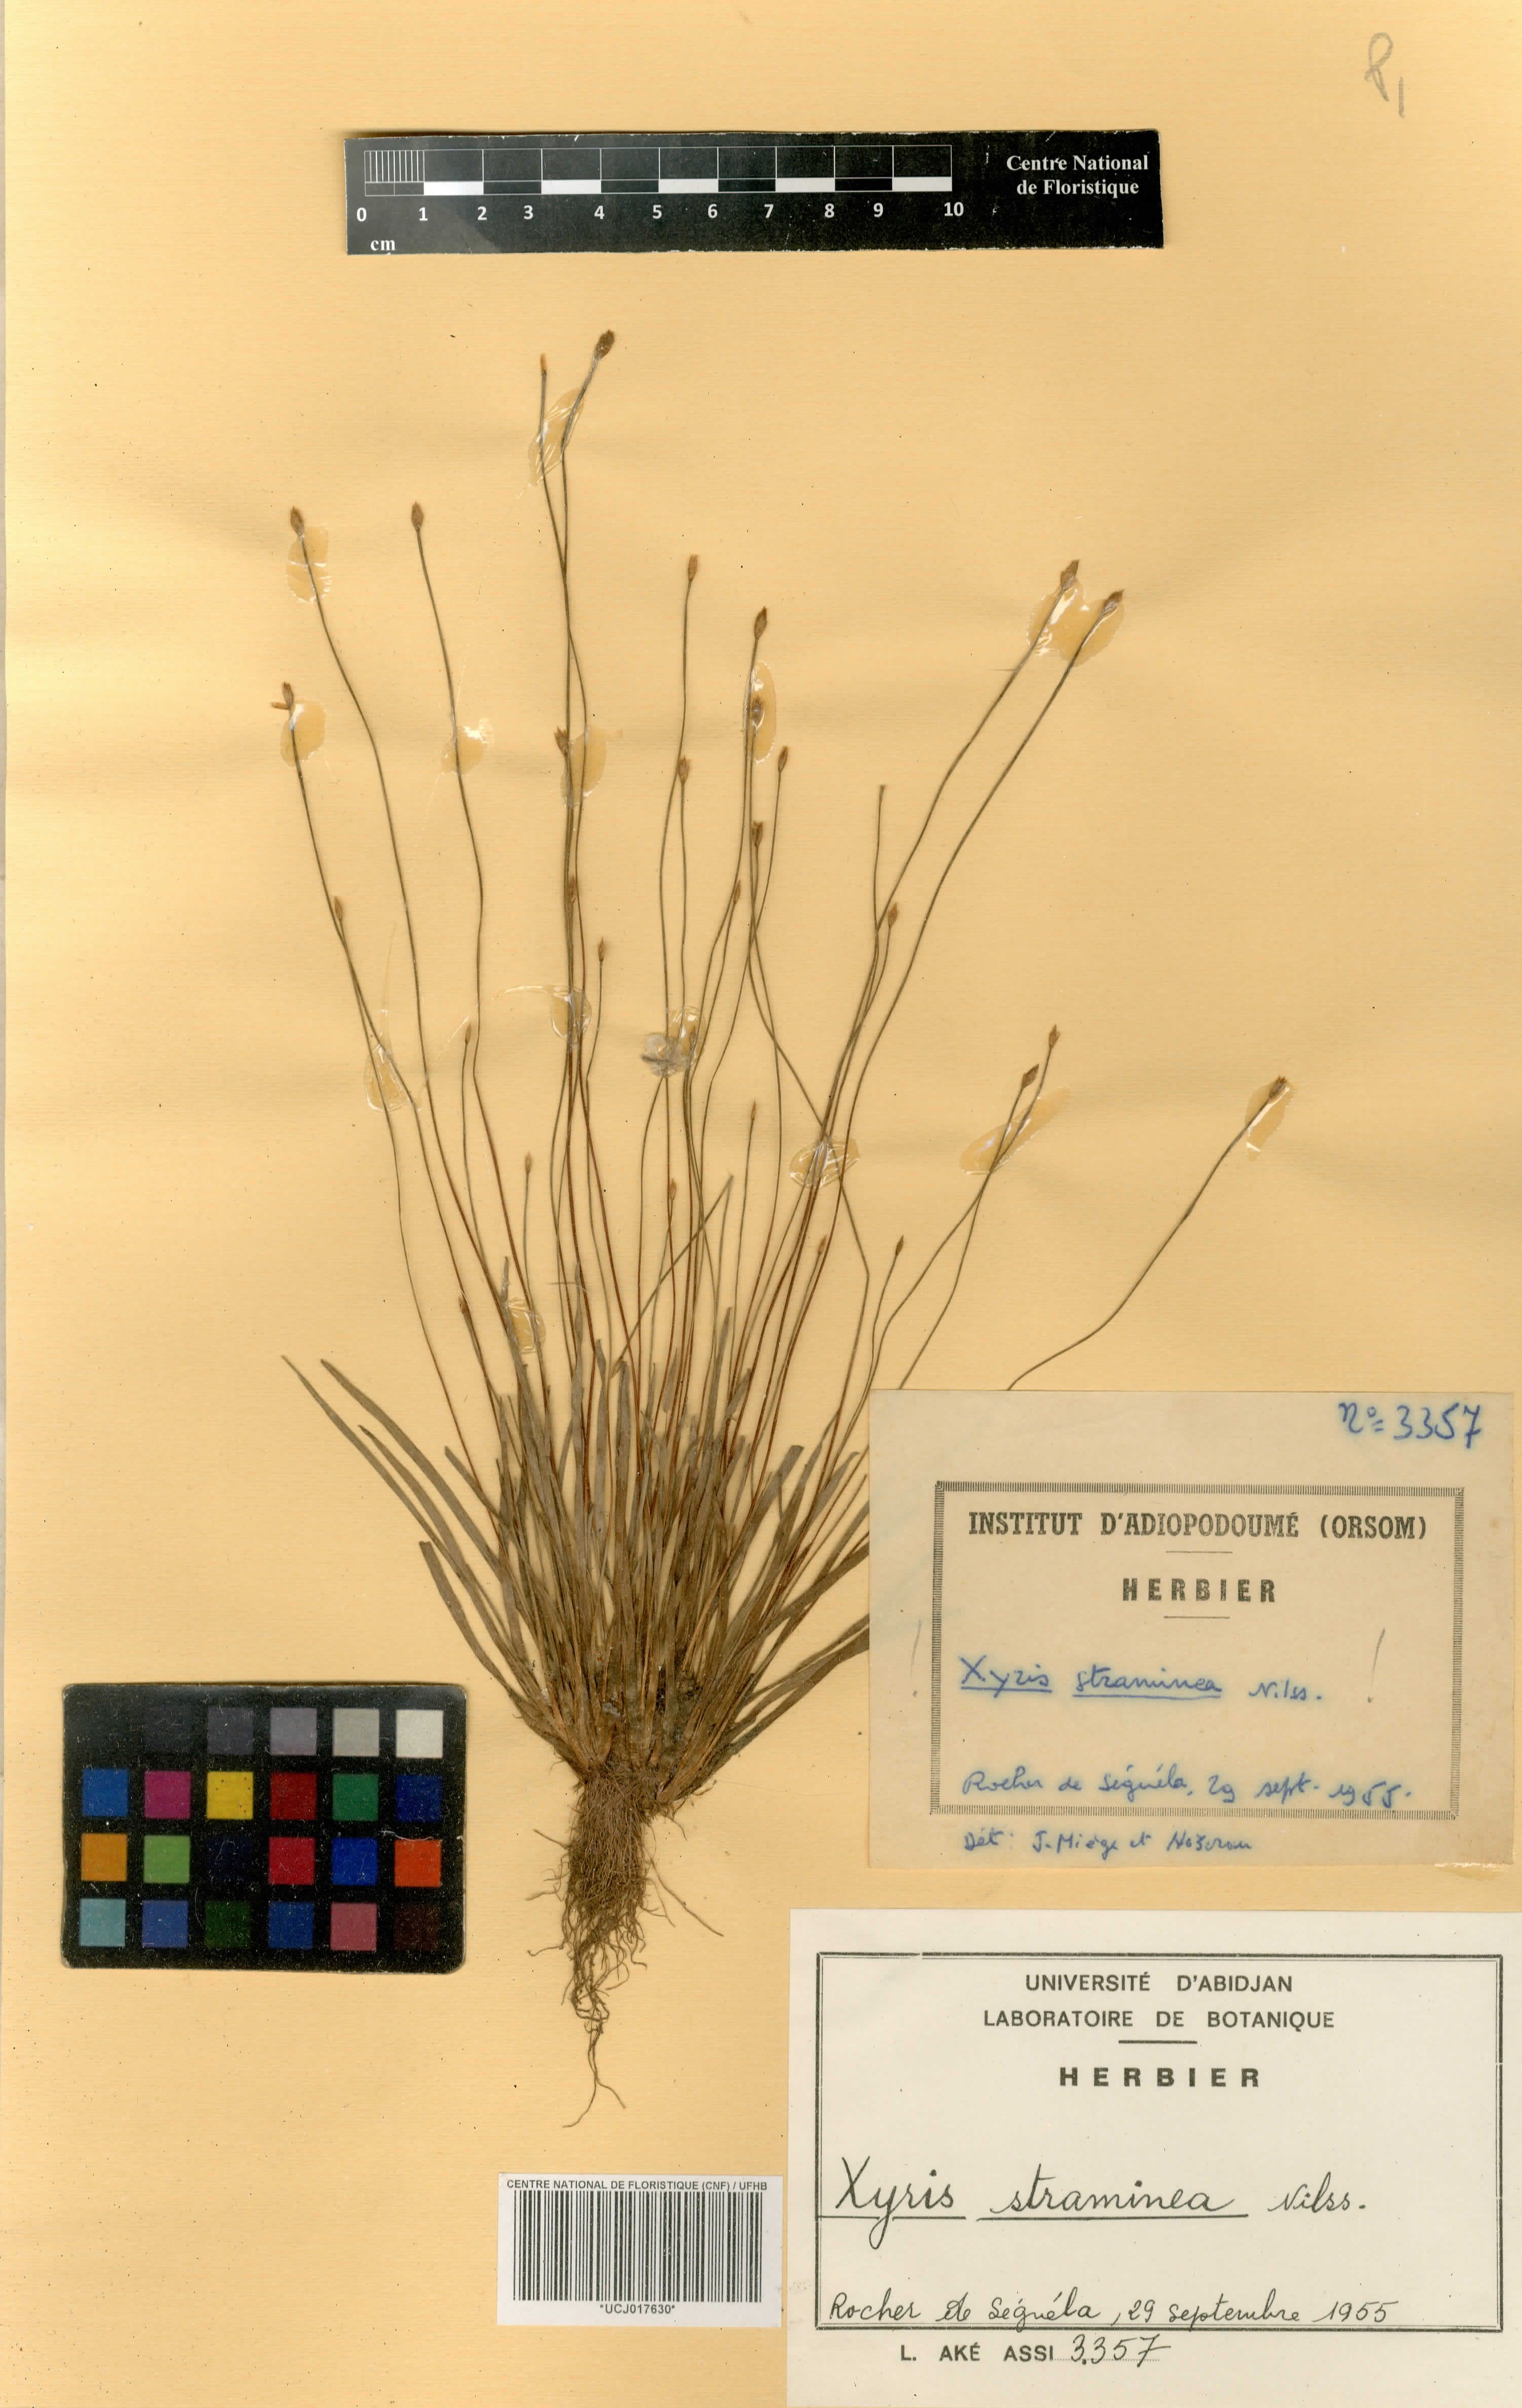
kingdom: Plantae
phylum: Tracheophyta
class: Liliopsida
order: Poales
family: Xyridaceae
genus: Xyris
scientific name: Xyris straminea
